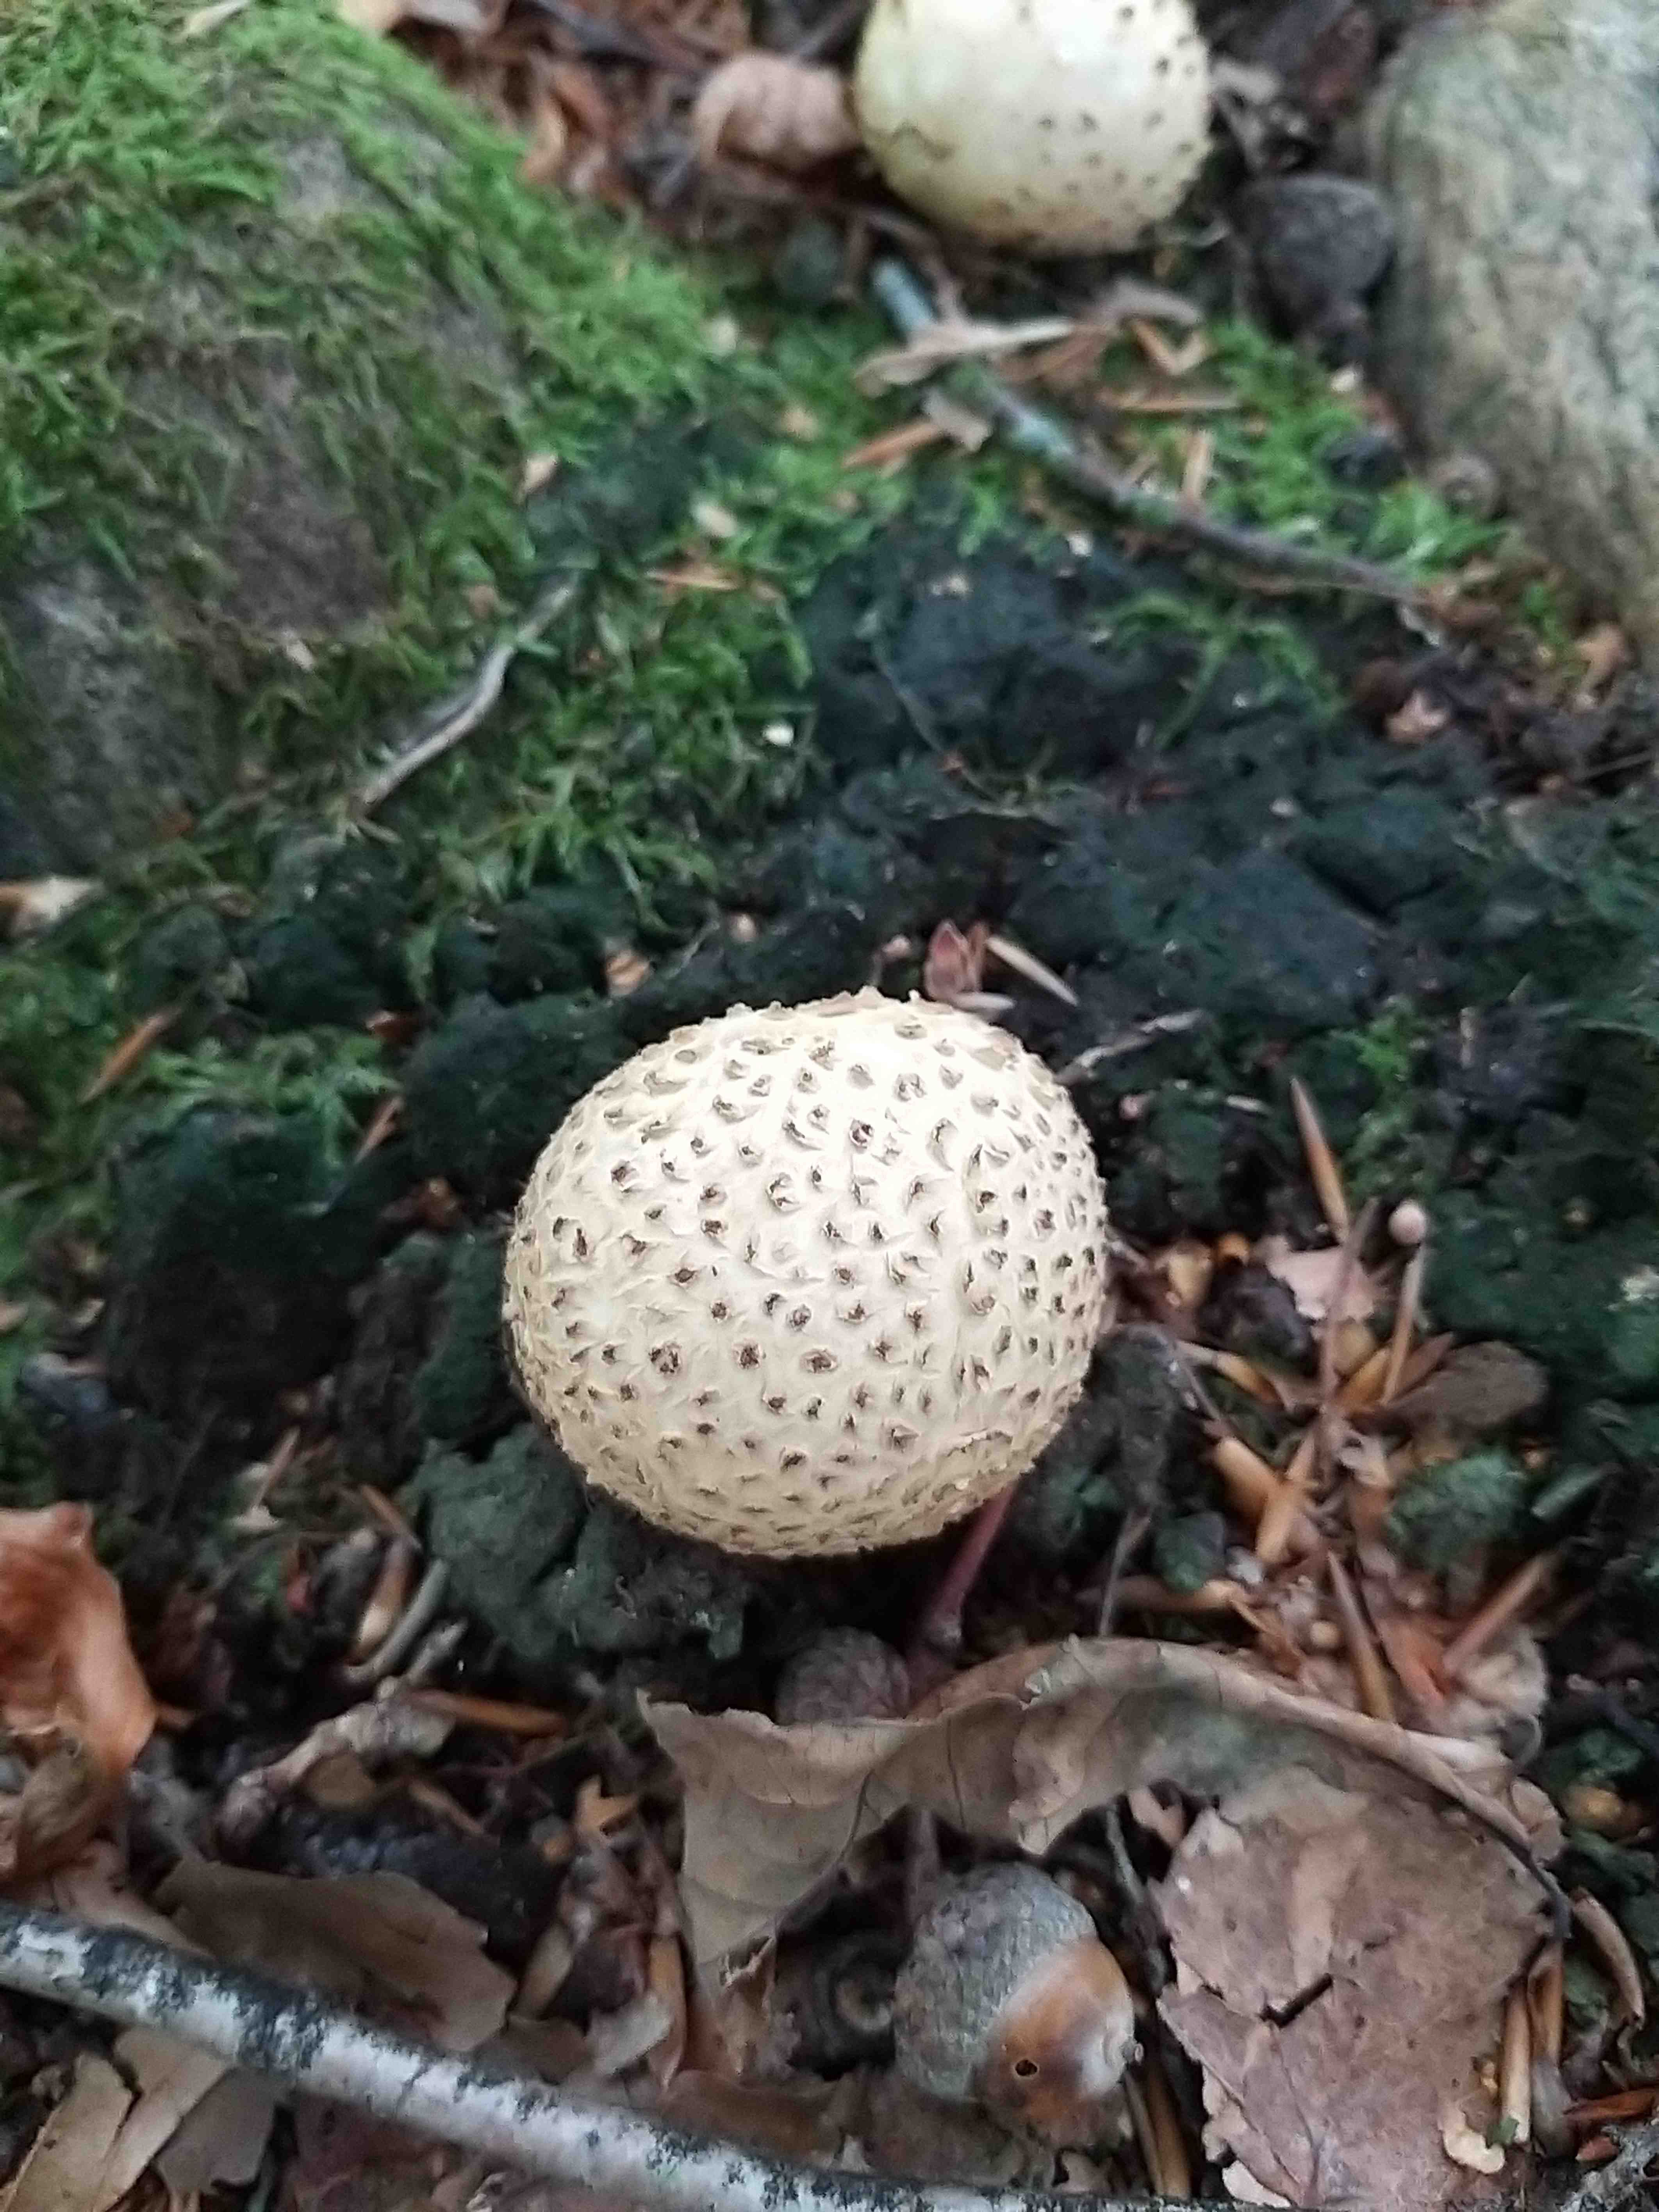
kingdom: Fungi
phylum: Basidiomycota
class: Agaricomycetes
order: Boletales
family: Sclerodermataceae
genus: Scleroderma
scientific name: Scleroderma citrinum
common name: almindelig bruskbold
